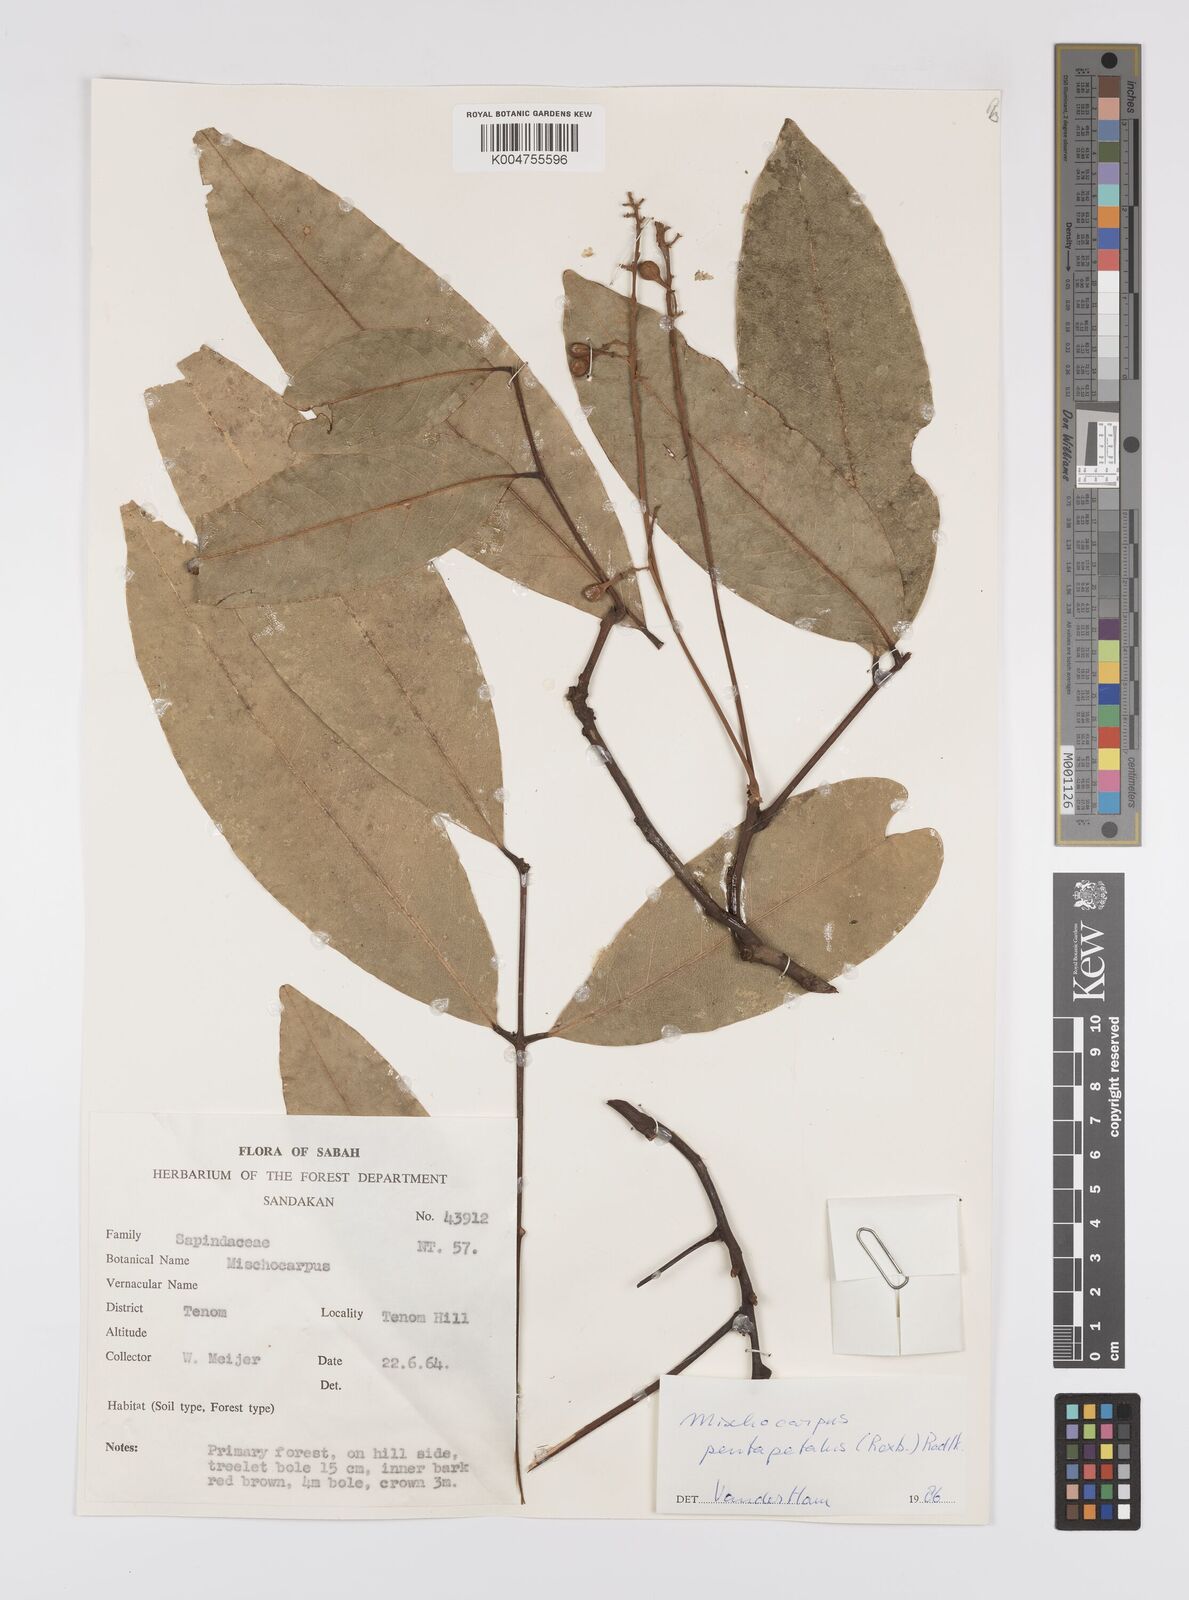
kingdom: Plantae
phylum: Tracheophyta
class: Magnoliopsida
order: Sapindales
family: Sapindaceae
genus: Mischocarpus
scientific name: Mischocarpus pentapetalus
